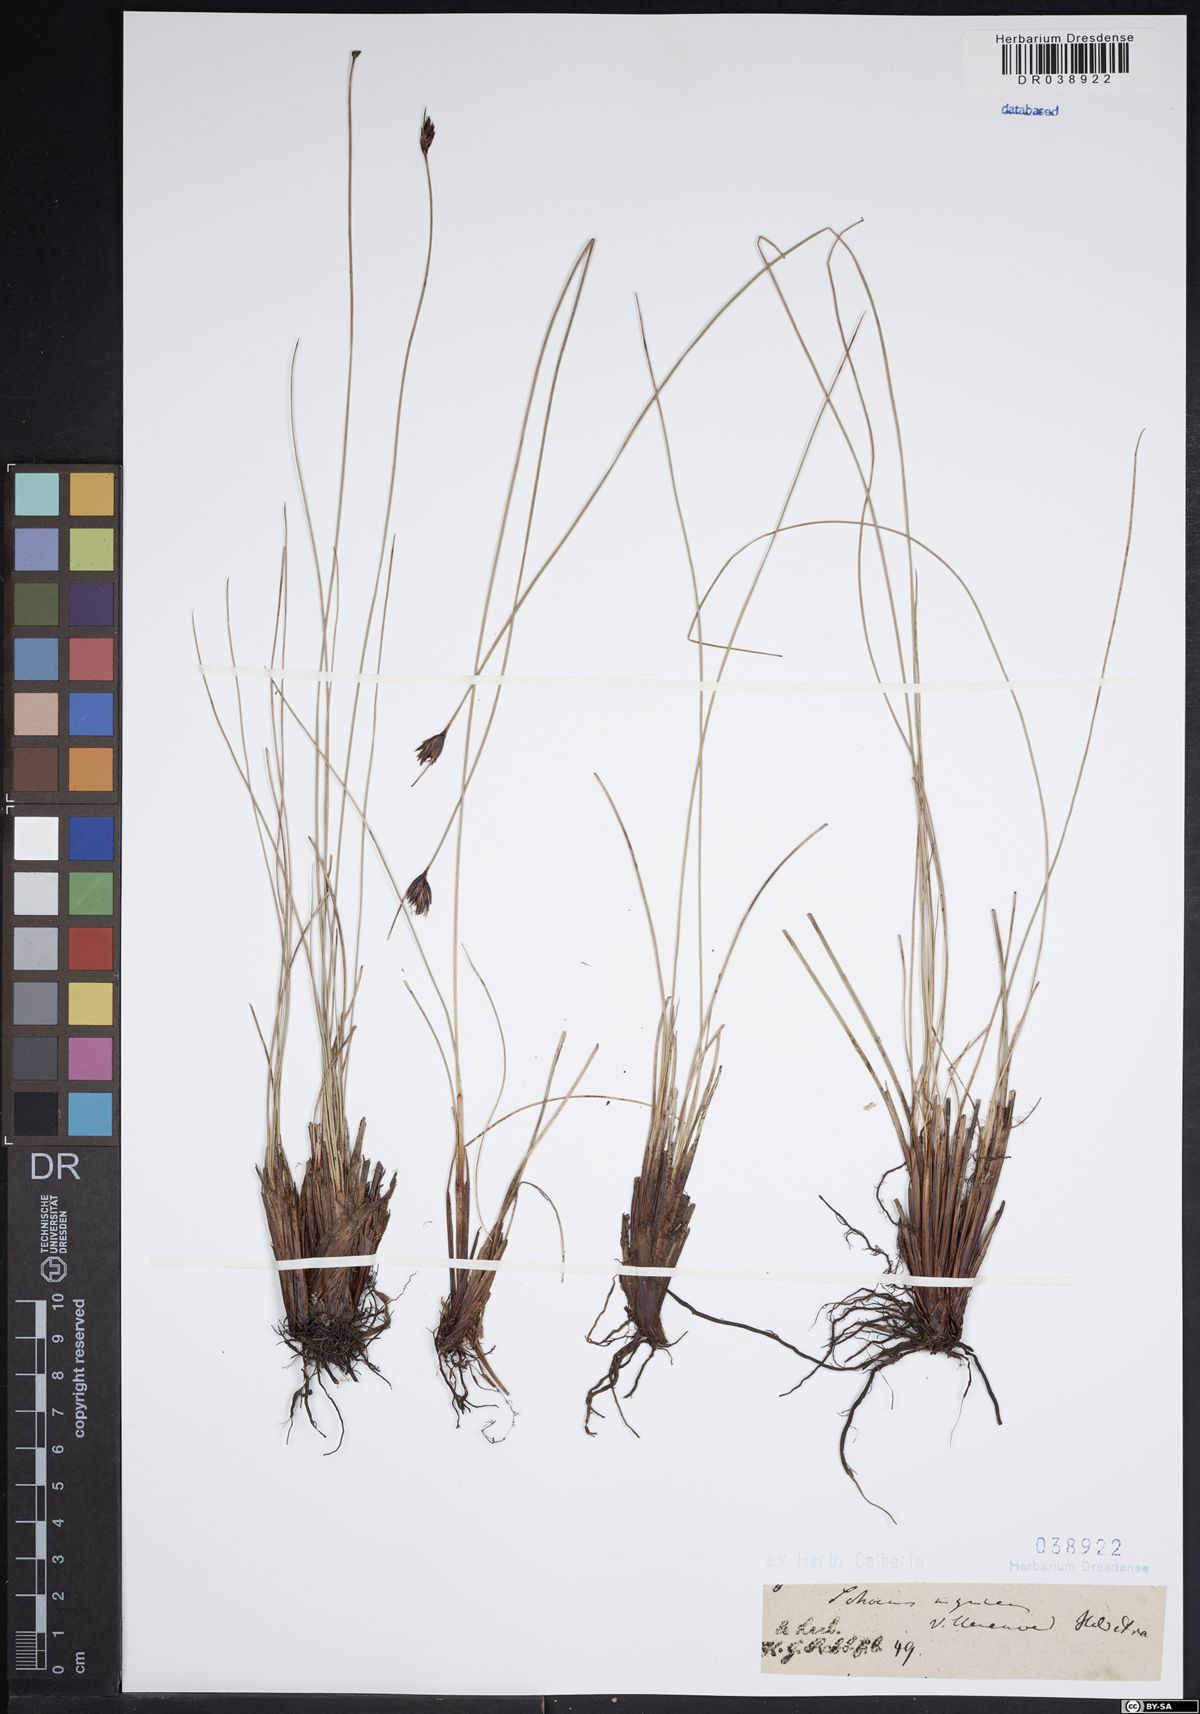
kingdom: Plantae
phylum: Tracheophyta
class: Liliopsida
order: Poales
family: Cyperaceae
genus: Schoenus
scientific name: Schoenus nigricans
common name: Black bog-rush
